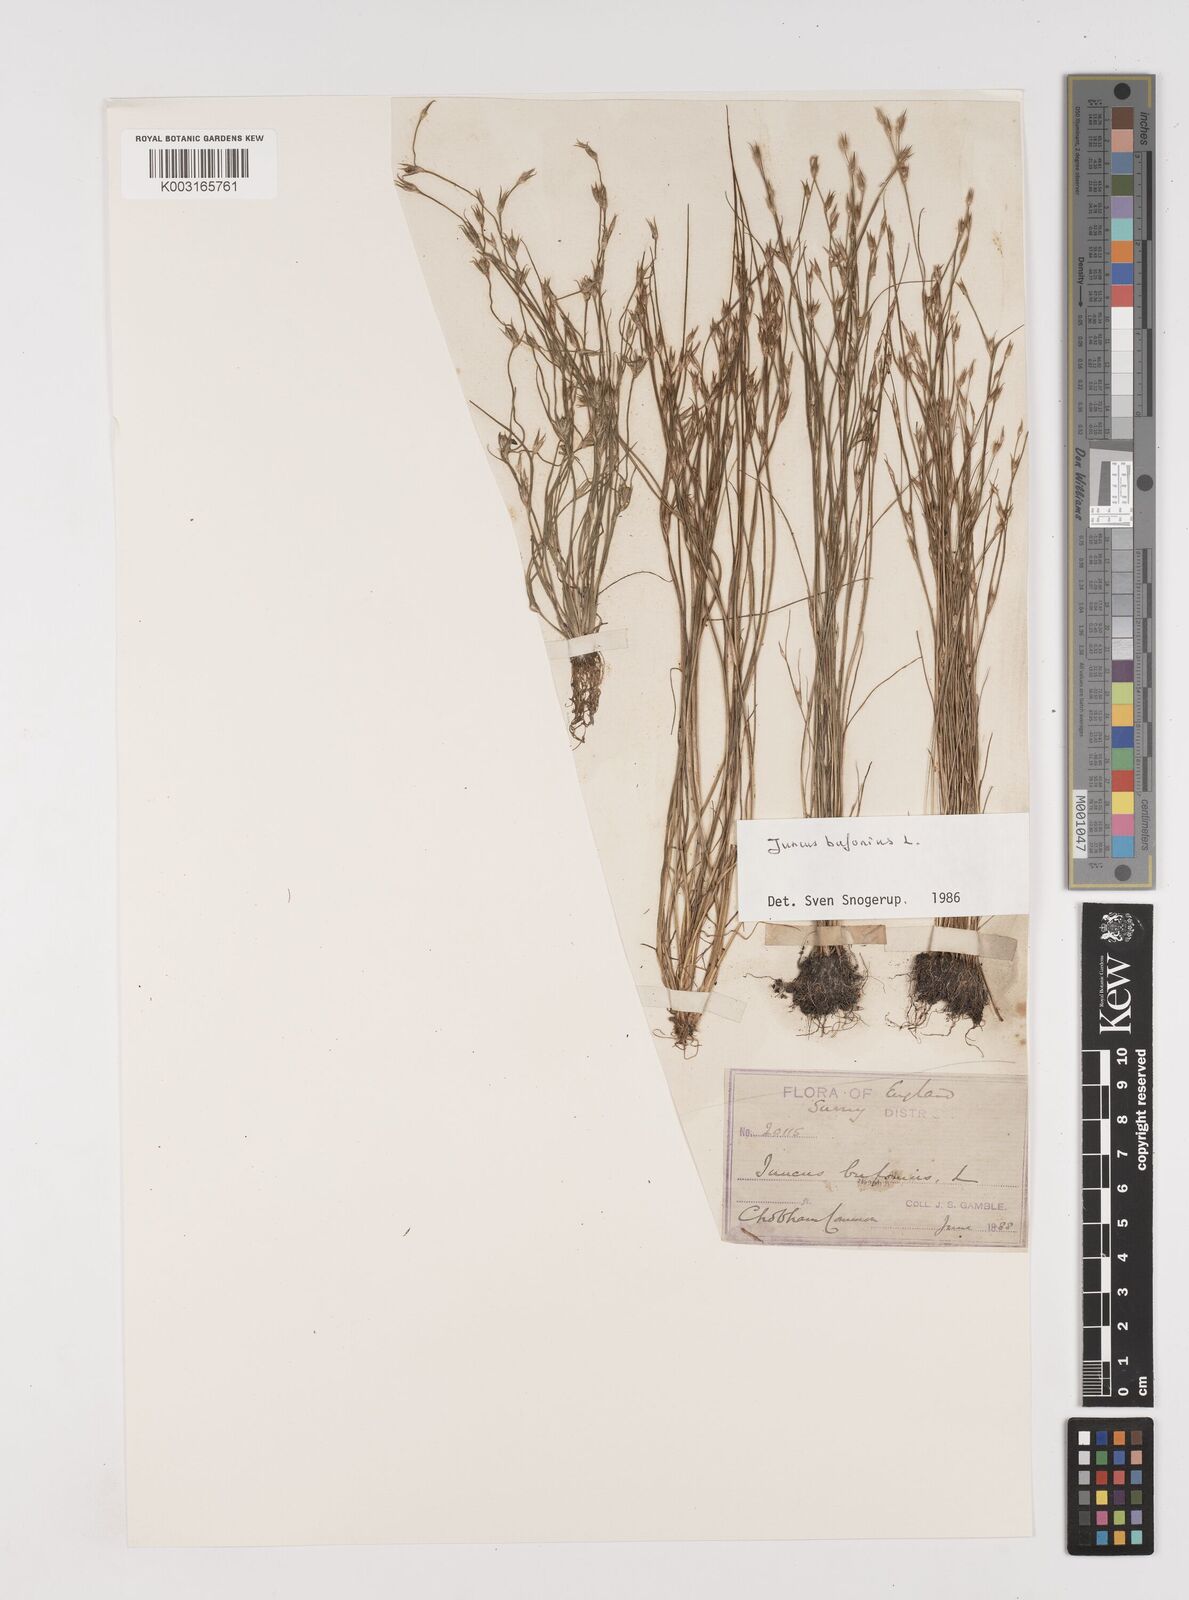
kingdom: Plantae
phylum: Tracheophyta
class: Liliopsida
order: Poales
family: Juncaceae
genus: Juncus
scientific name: Juncus bufonius
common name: Toad rush
